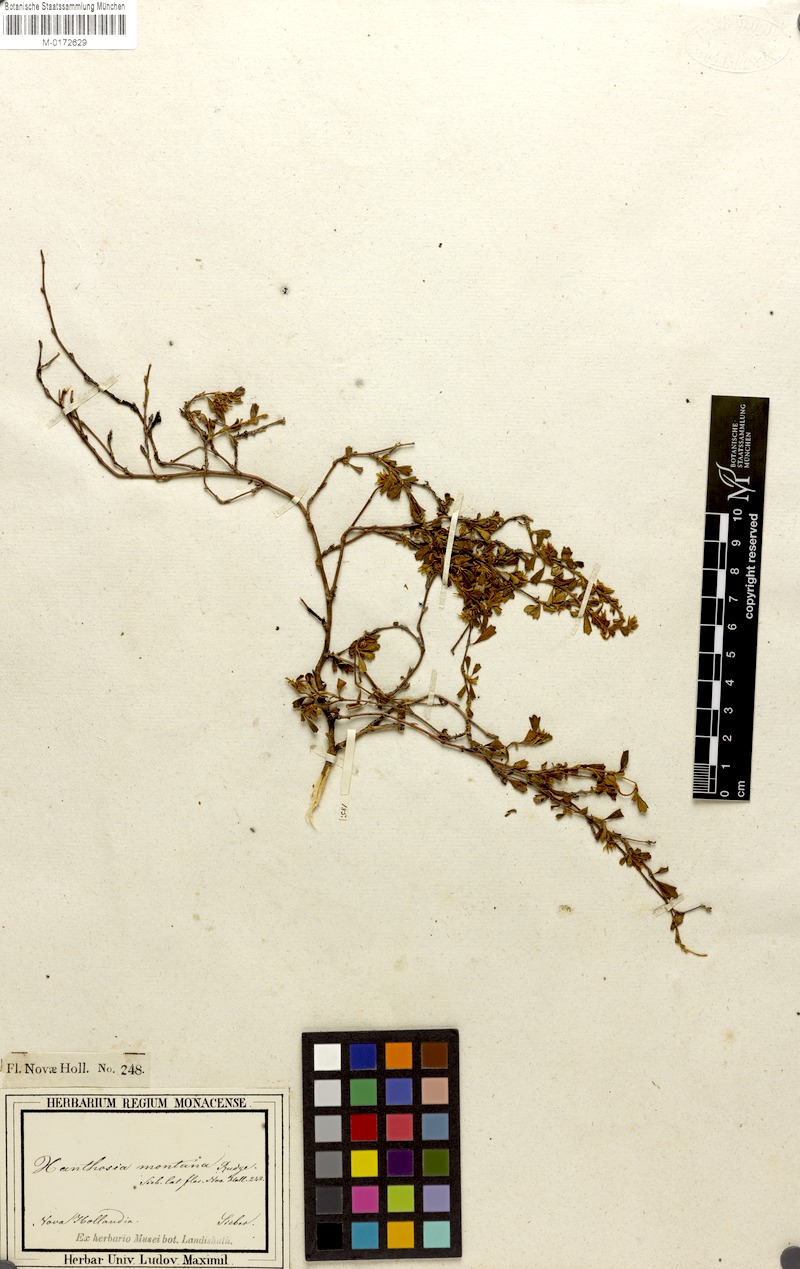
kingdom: Plantae
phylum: Tracheophyta
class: Magnoliopsida
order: Apiales
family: Apiaceae
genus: Xanthosia
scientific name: Xanthosia pilosa
